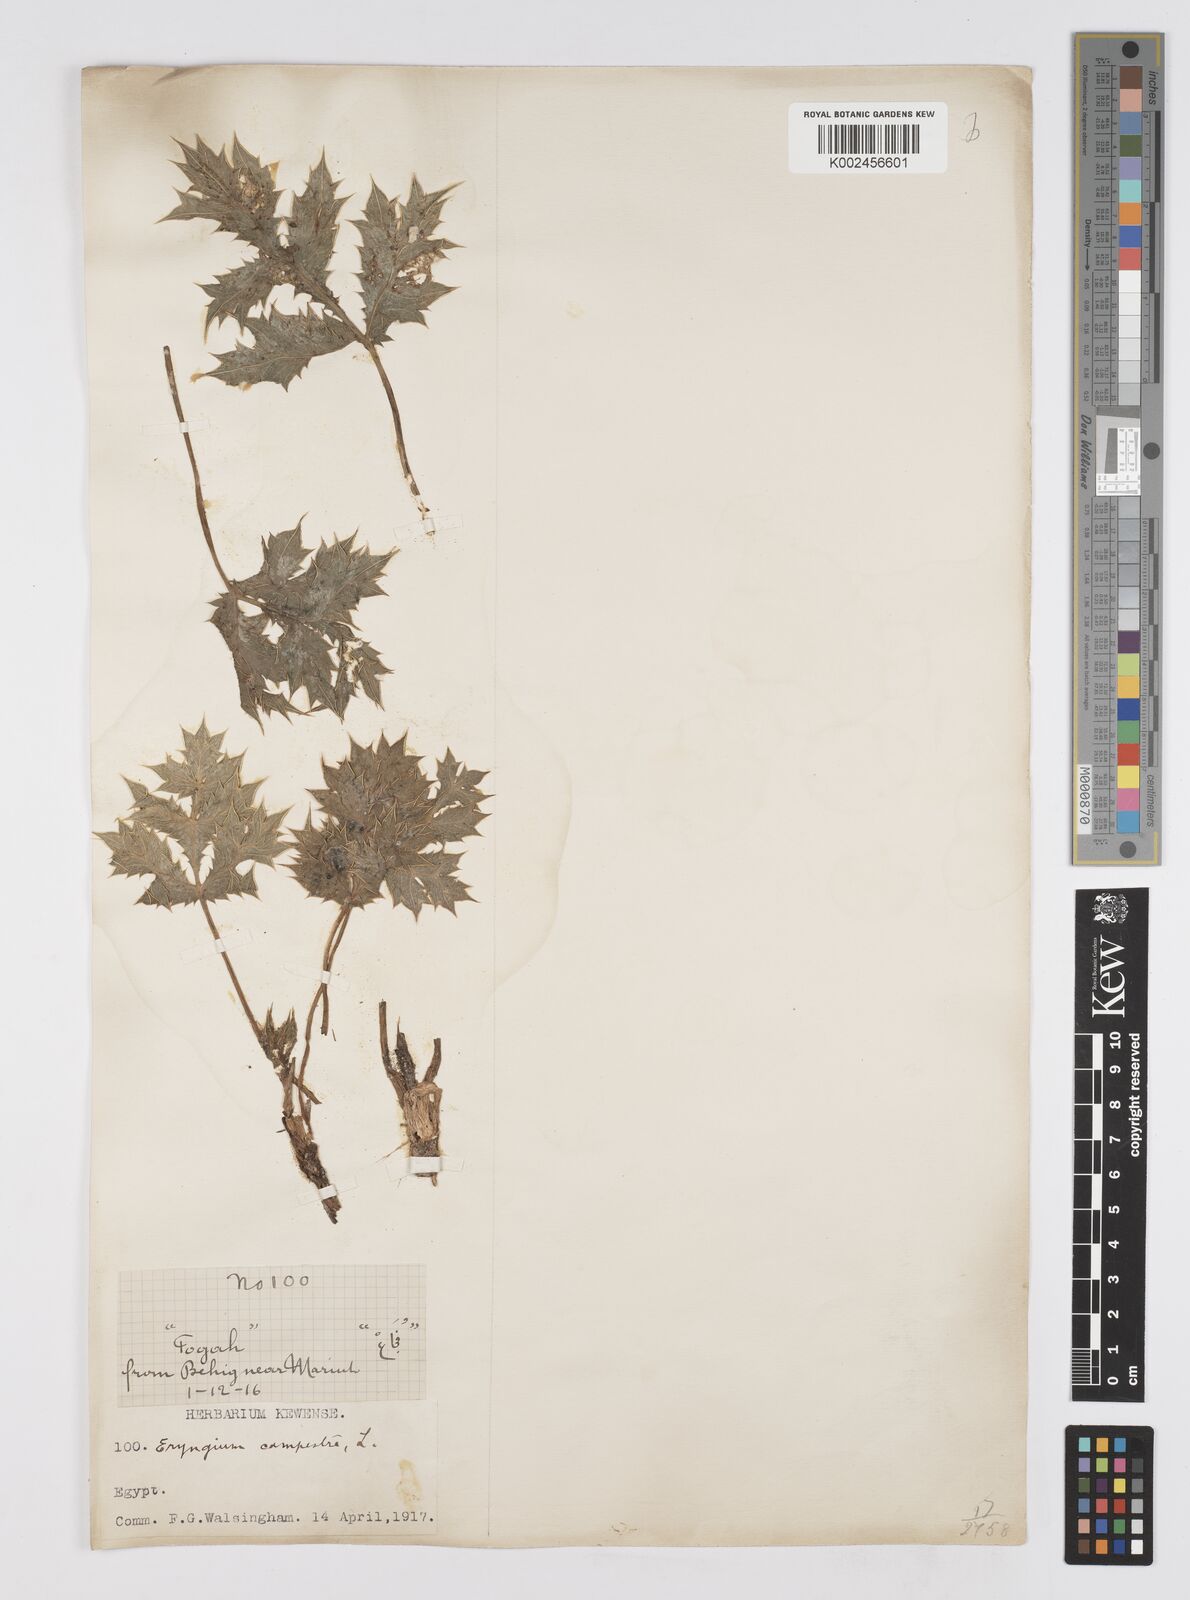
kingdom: Plantae
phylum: Tracheophyta
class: Magnoliopsida
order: Apiales
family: Apiaceae
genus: Eryngium
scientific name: Eryngium campestre
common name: Field eryngo
